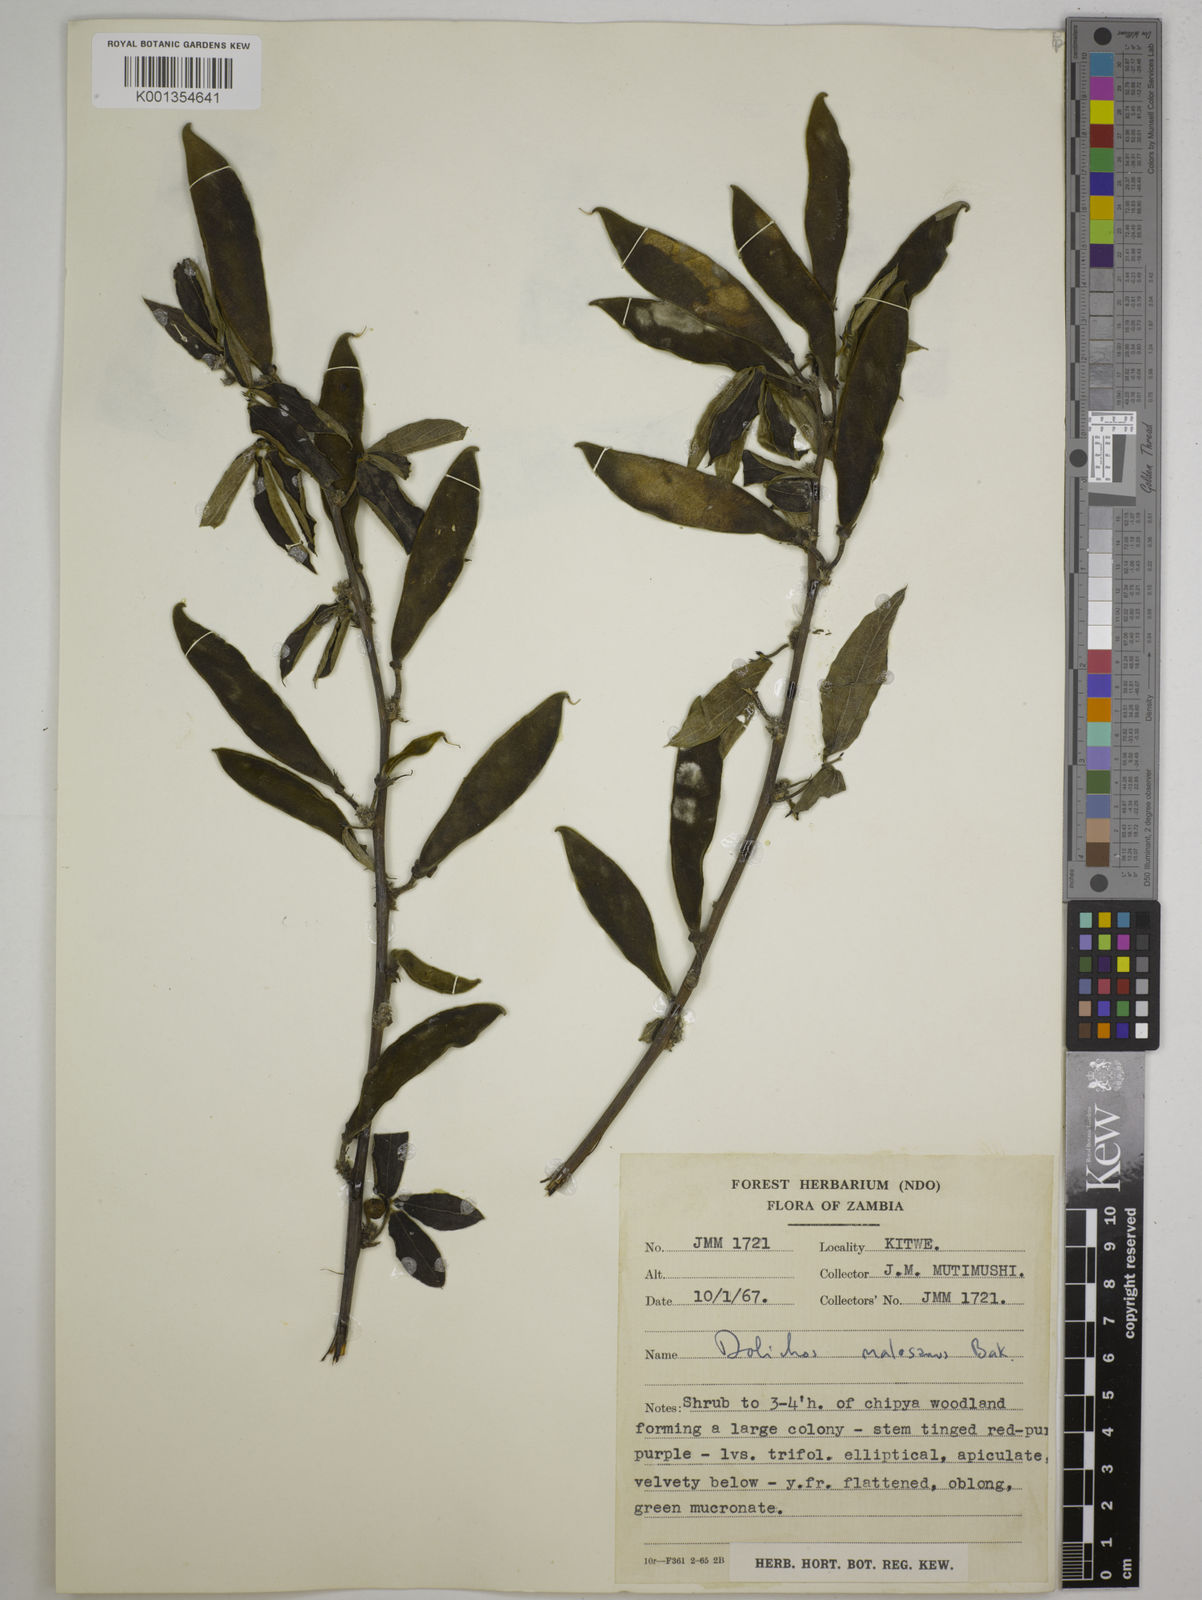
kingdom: Plantae
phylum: Tracheophyta
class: Magnoliopsida
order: Fabales
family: Fabaceae
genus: Dolichos
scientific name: Dolichos kilimandscharicus
